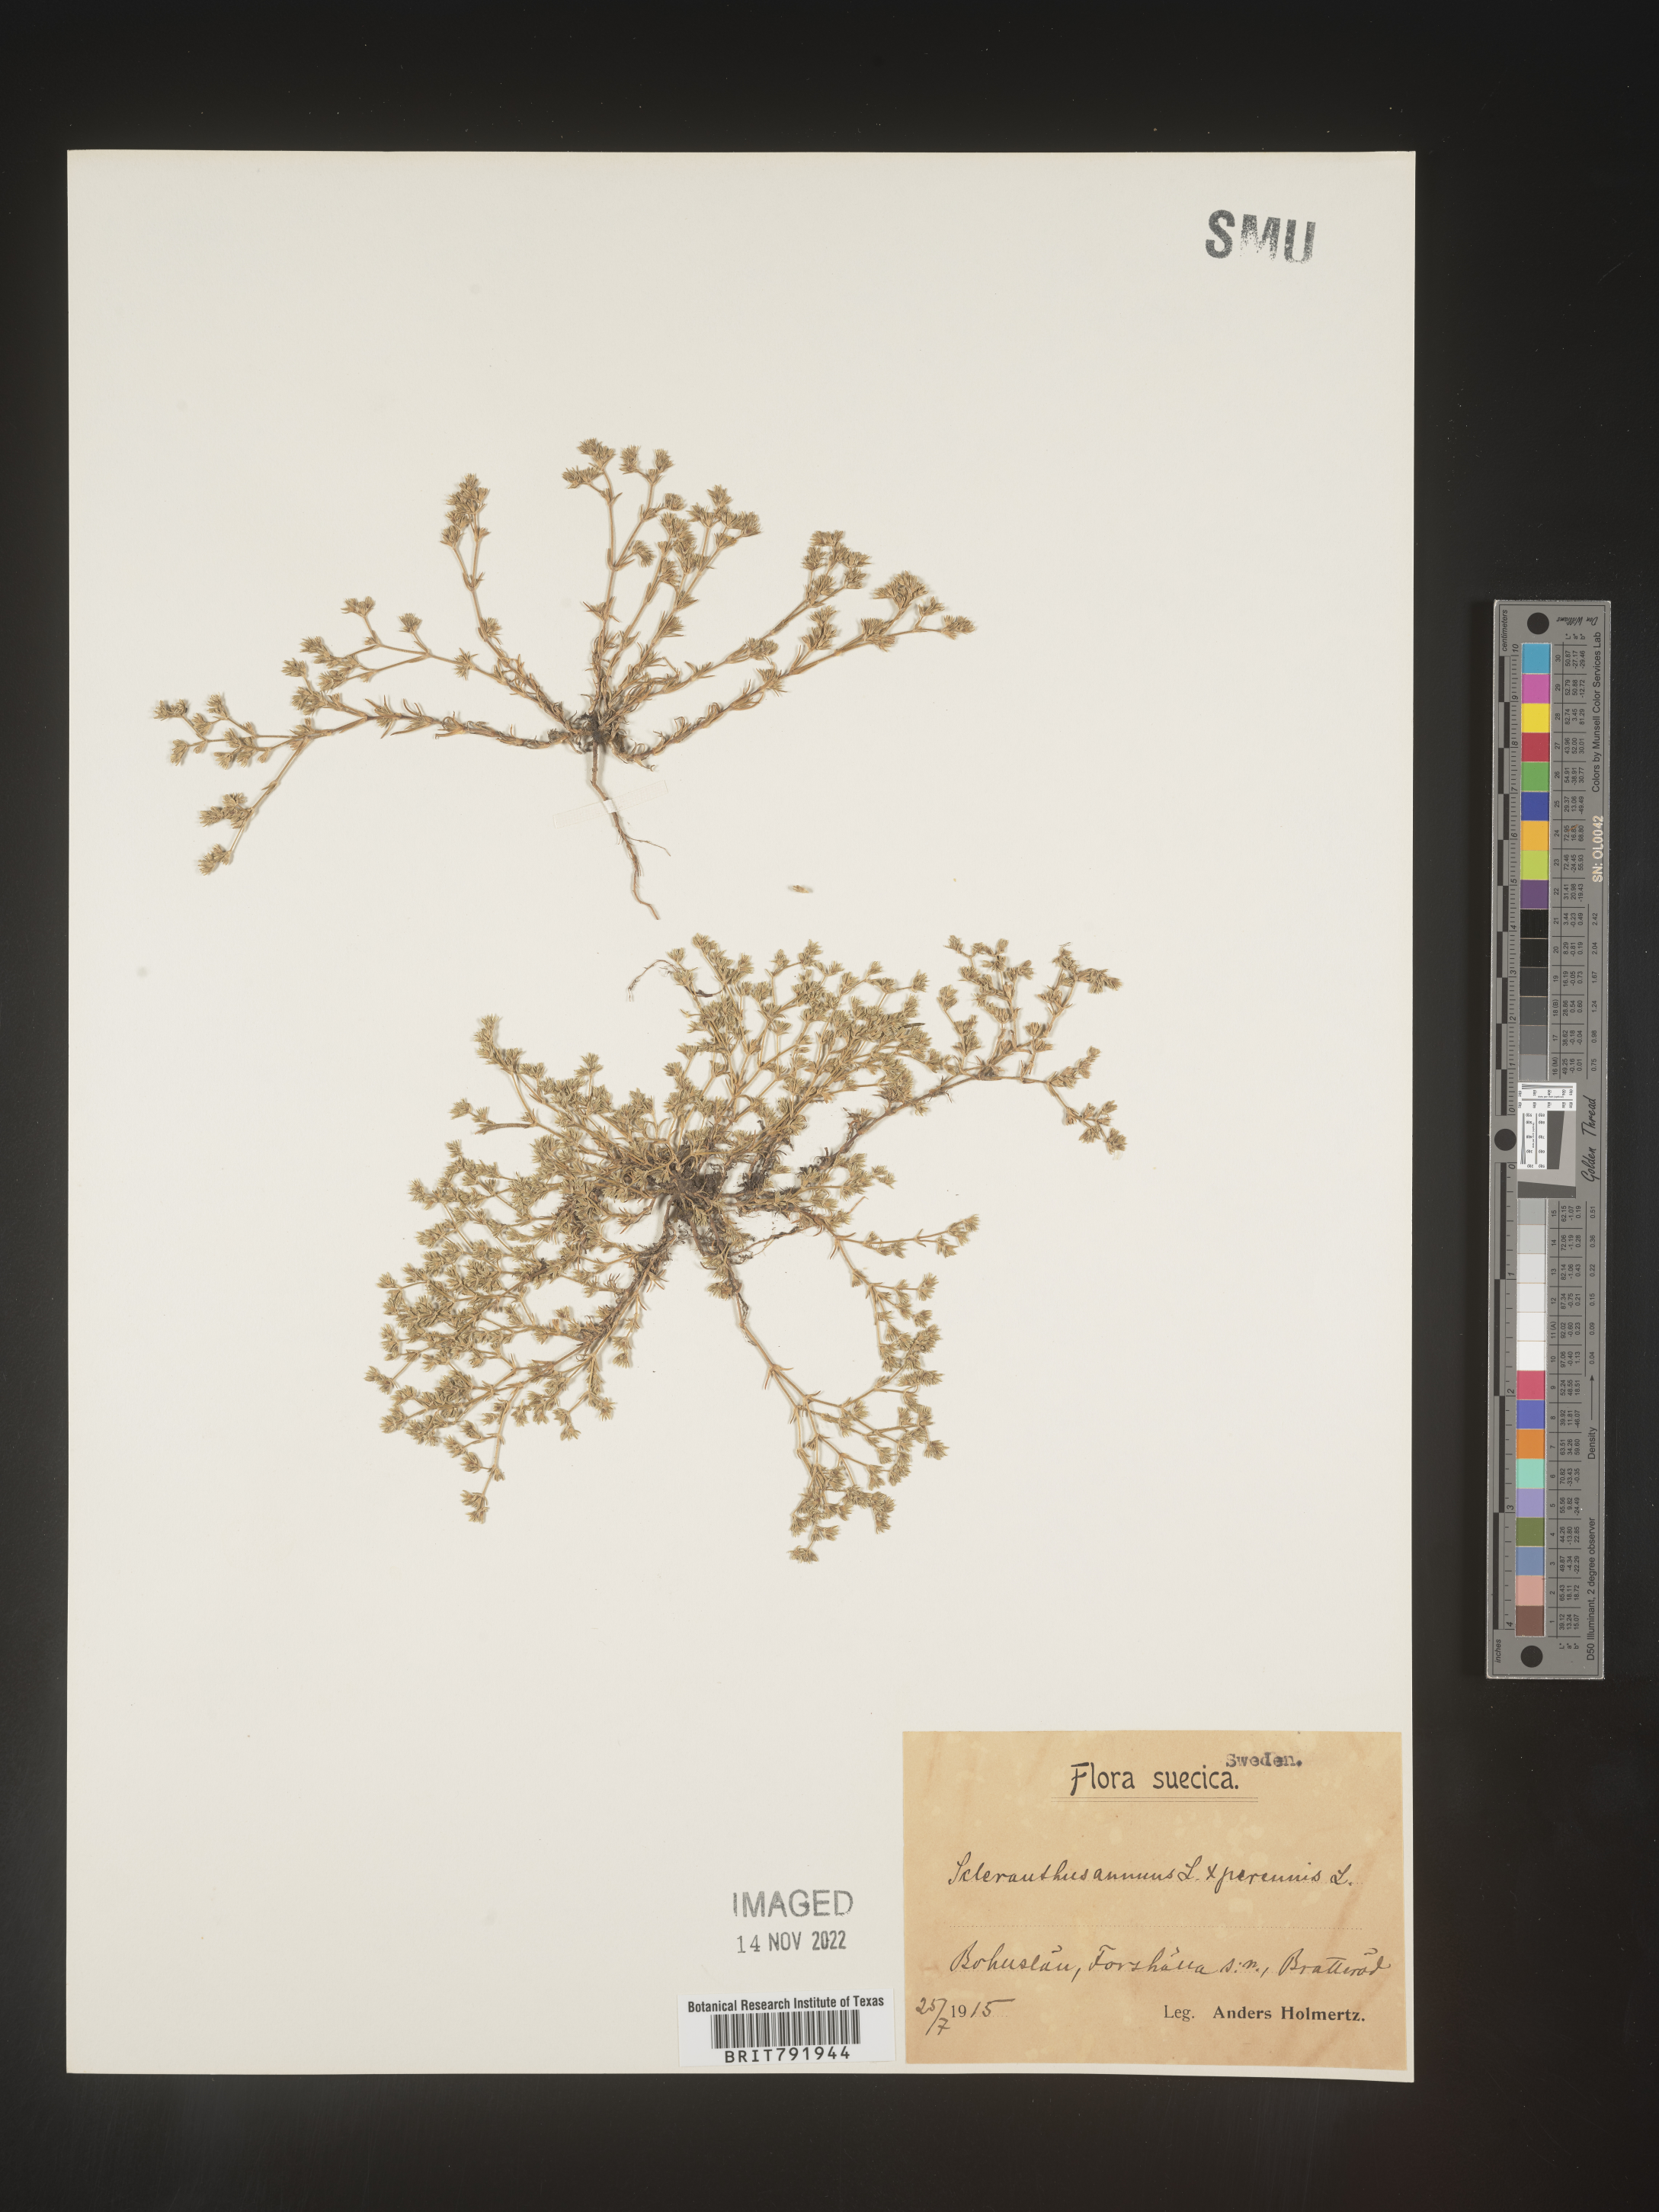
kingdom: Plantae
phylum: Tracheophyta
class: Magnoliopsida
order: Caryophyllales
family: Caryophyllaceae
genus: Scleranthus
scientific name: Scleranthus
